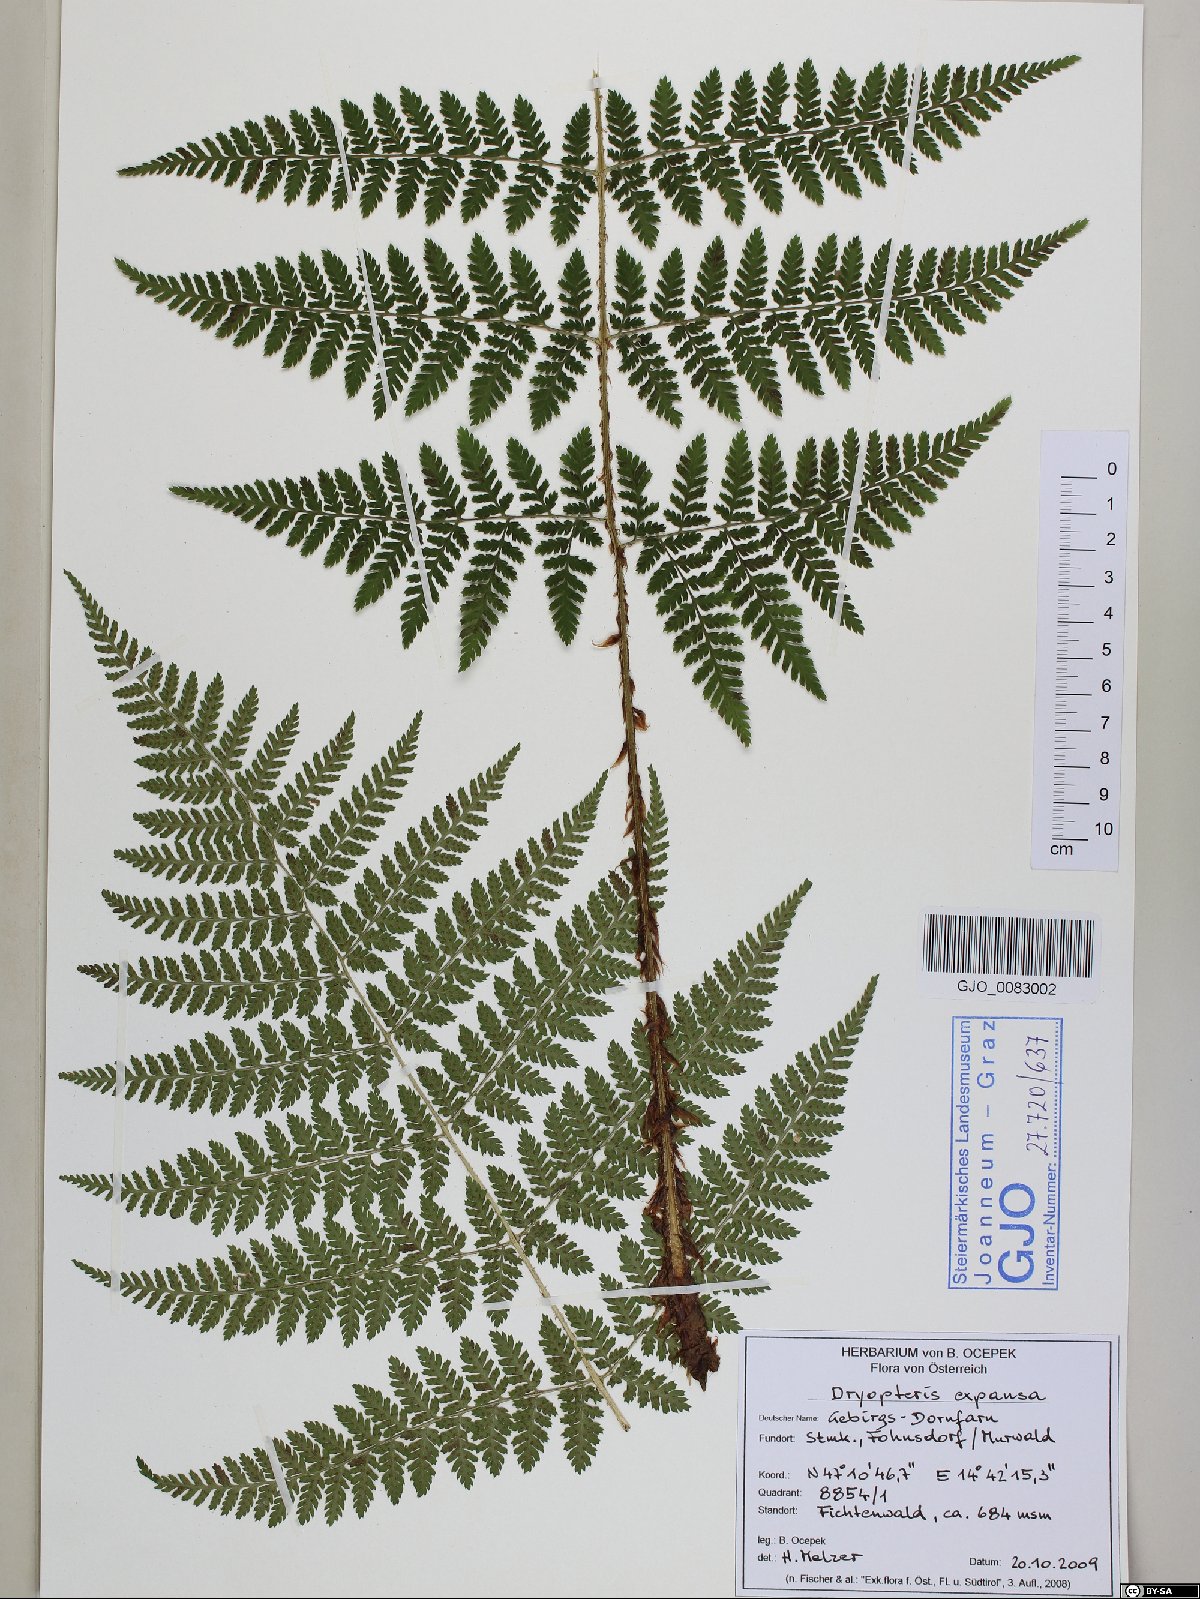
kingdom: Plantae
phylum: Tracheophyta
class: Polypodiopsida
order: Polypodiales
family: Dryopteridaceae
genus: Dryopteris
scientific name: Dryopteris expansa
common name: Northern buckler fern
